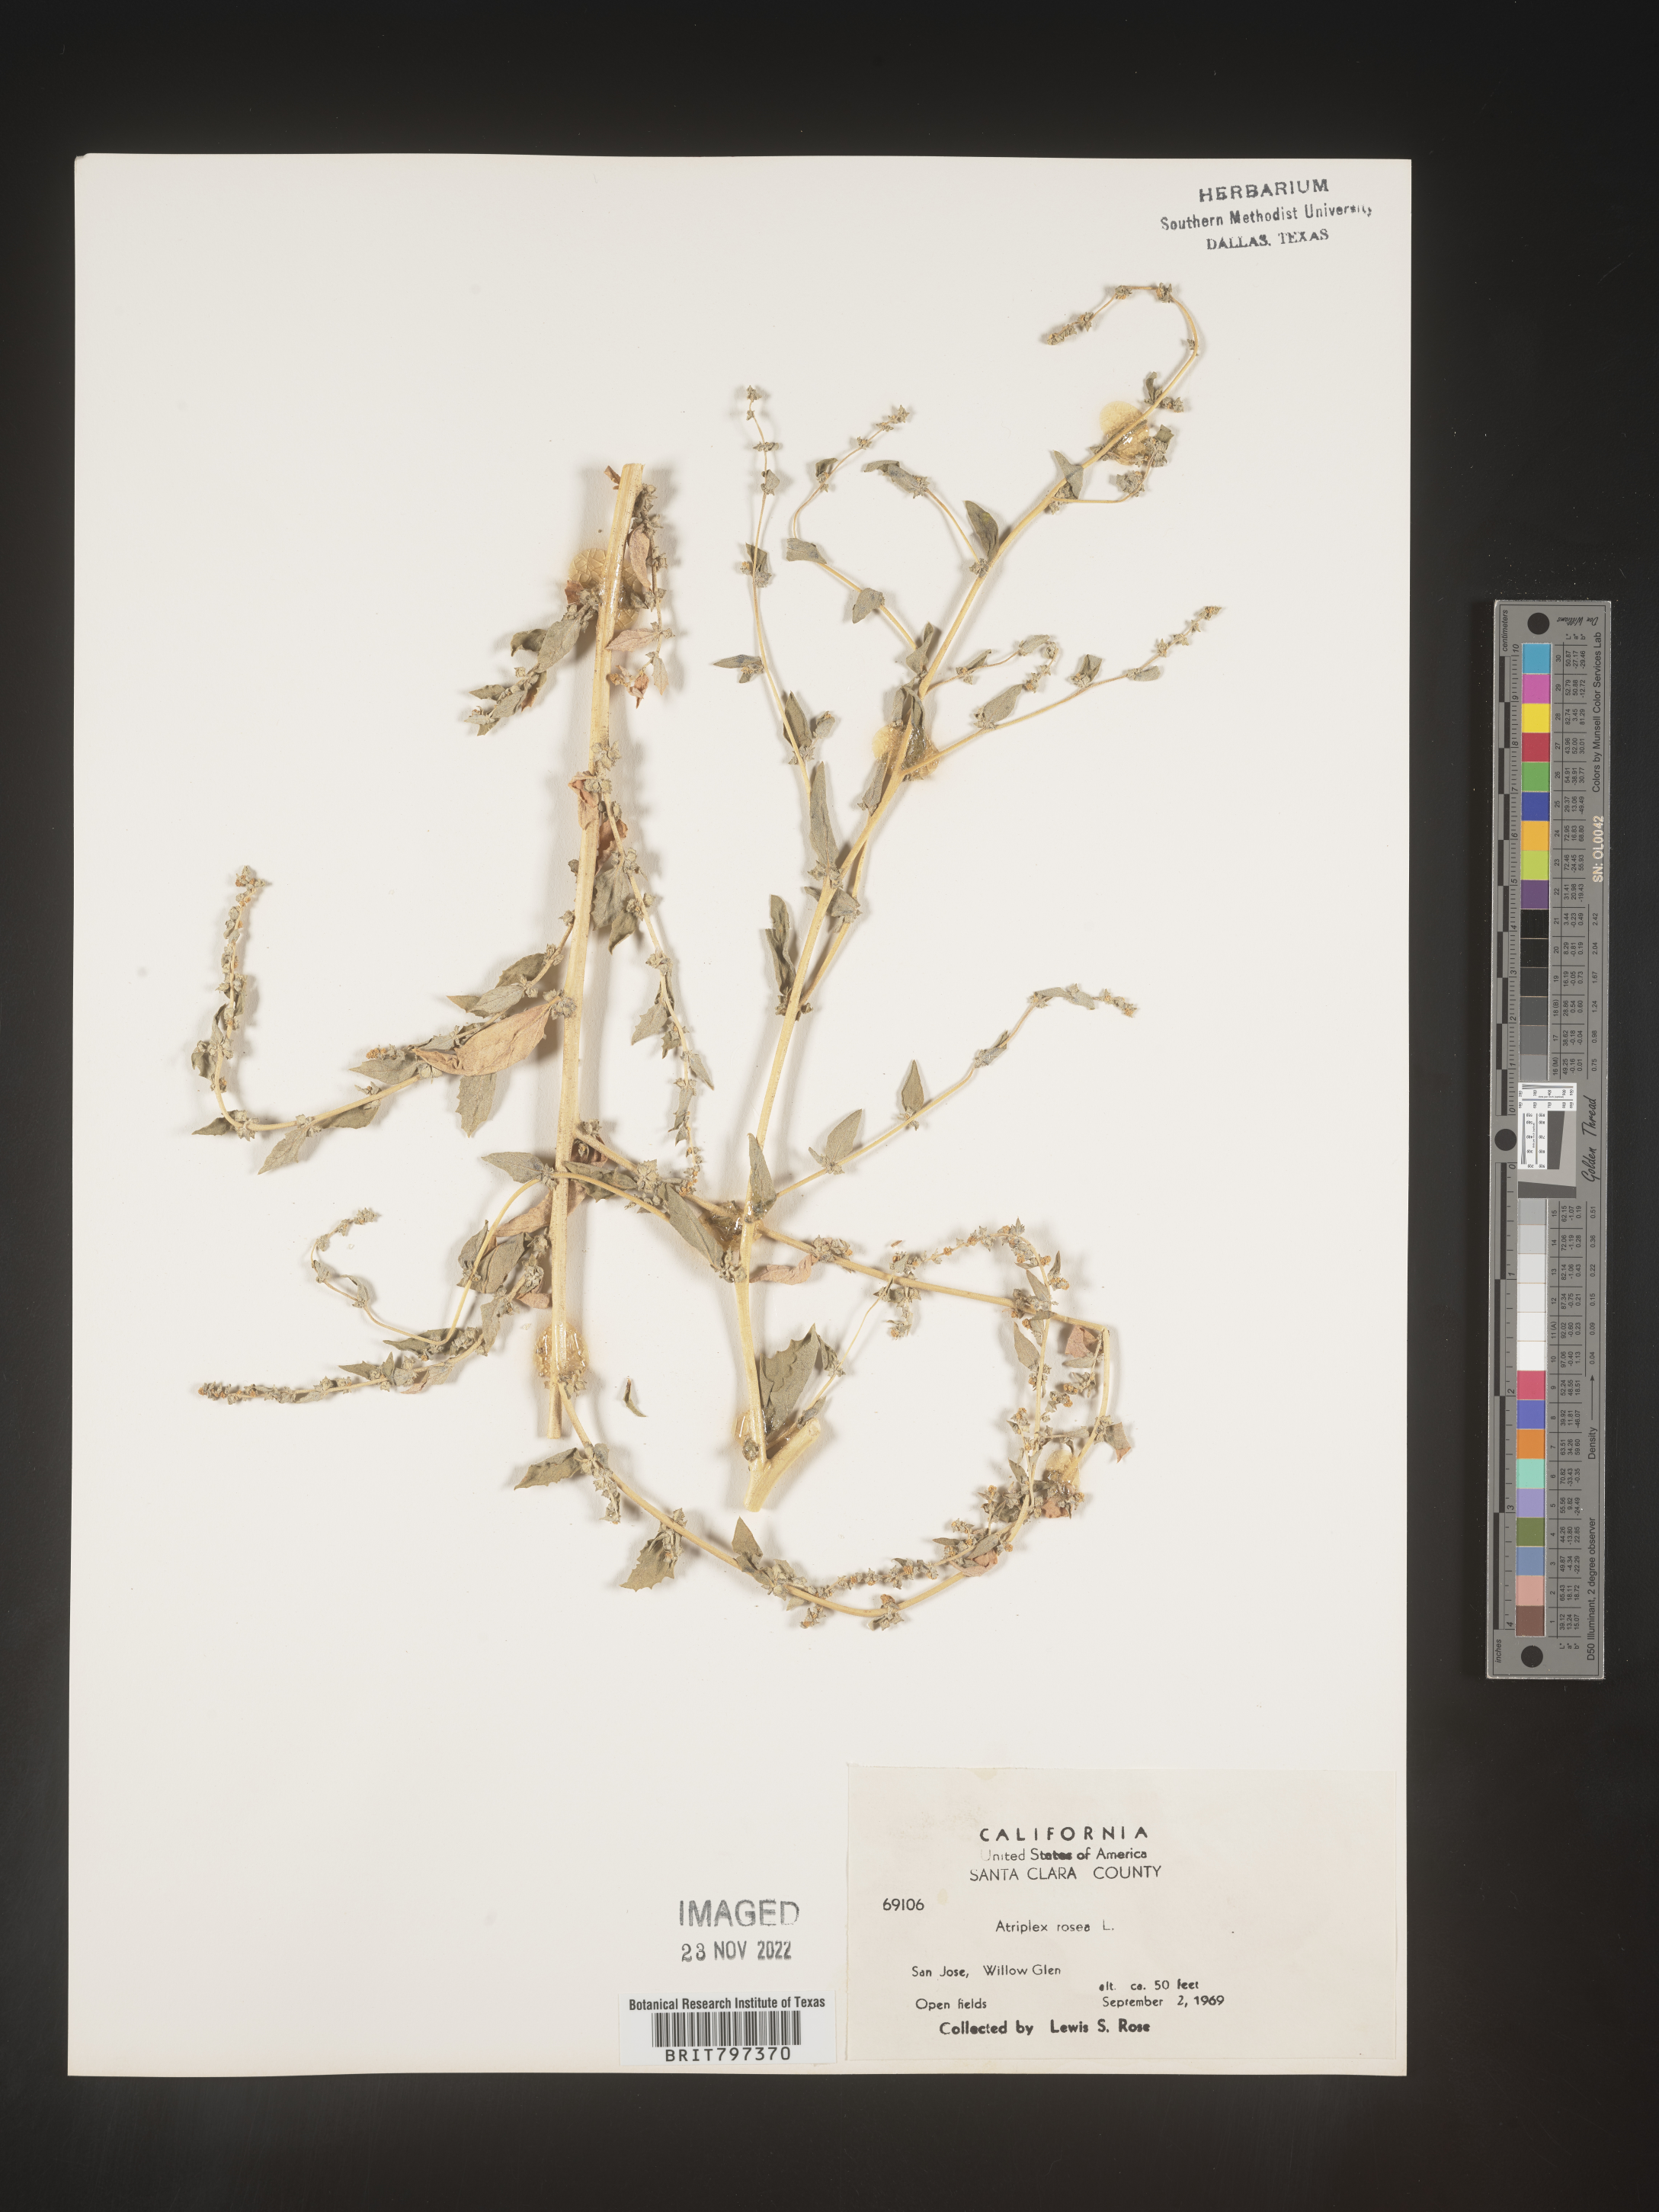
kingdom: Plantae
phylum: Tracheophyta
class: Magnoliopsida
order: Caryophyllales
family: Amaranthaceae
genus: Atriplex
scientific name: Atriplex rosea
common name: Tumbling saltweed
